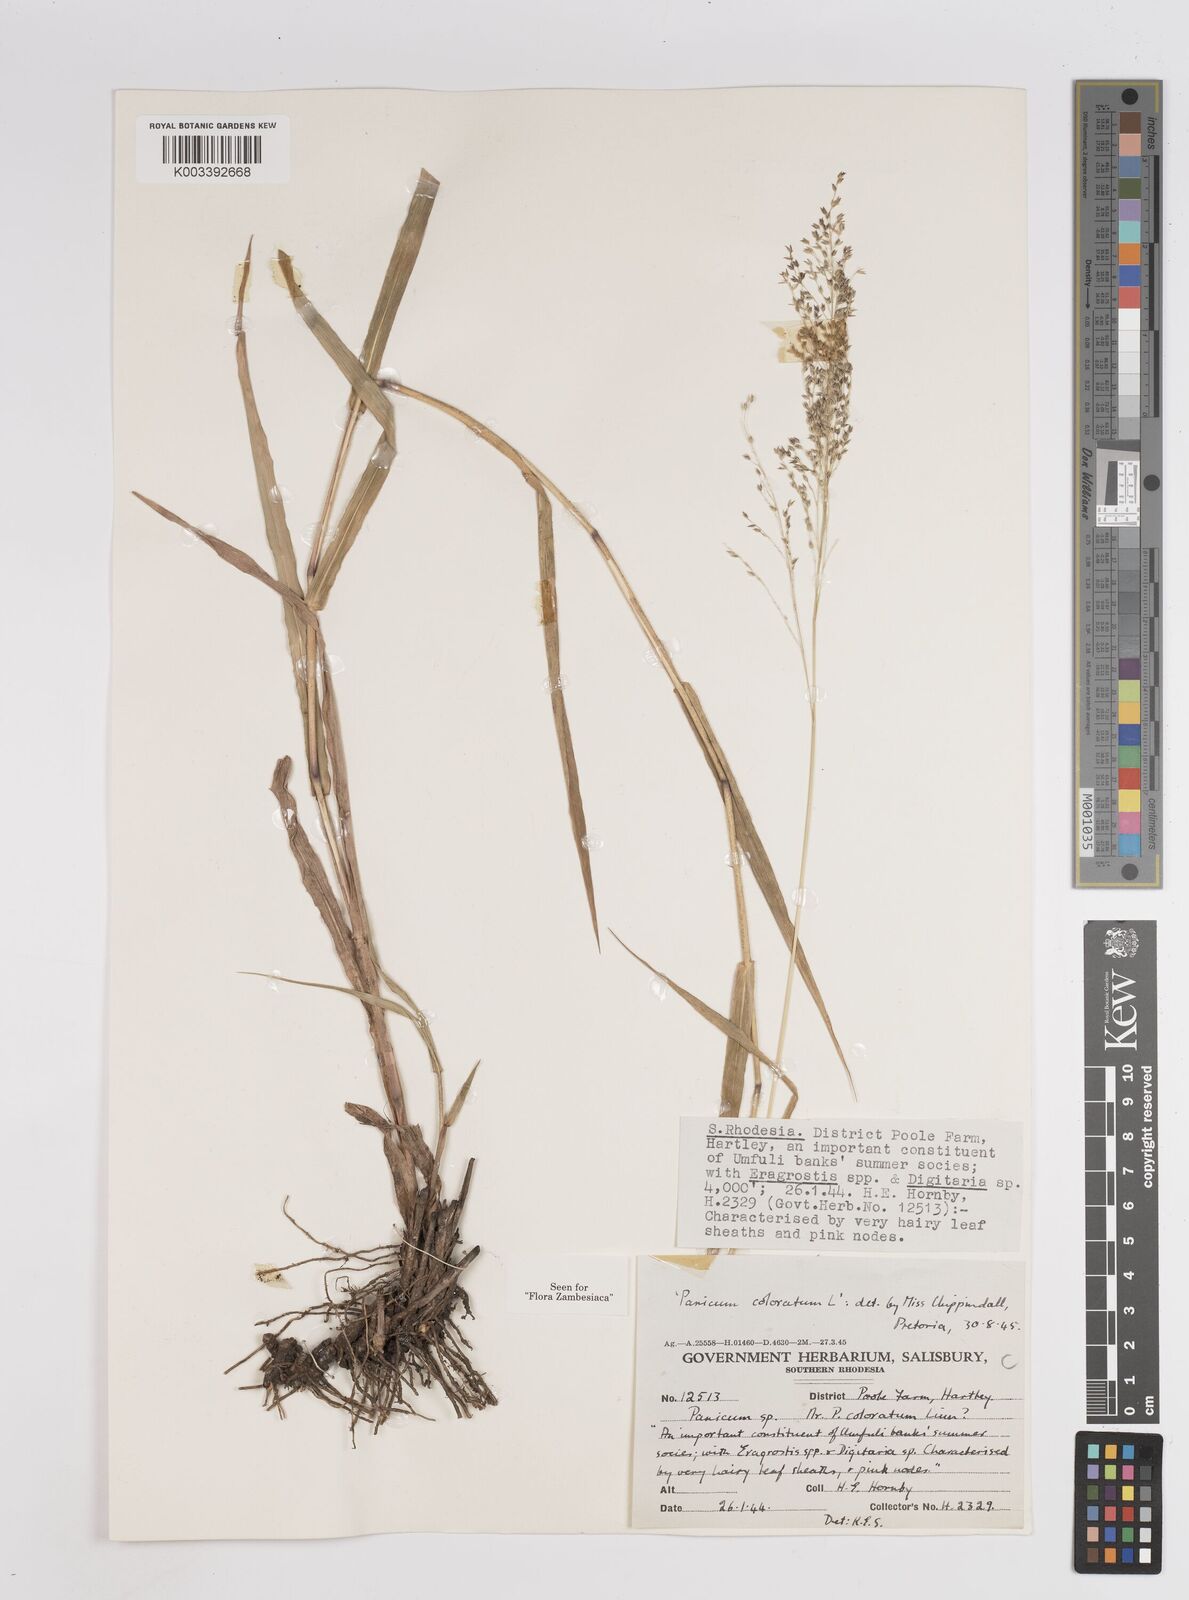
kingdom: Plantae
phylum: Tracheophyta
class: Liliopsida
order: Poales
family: Poaceae
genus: Panicum
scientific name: Panicum coloratum
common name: Kleingrass
